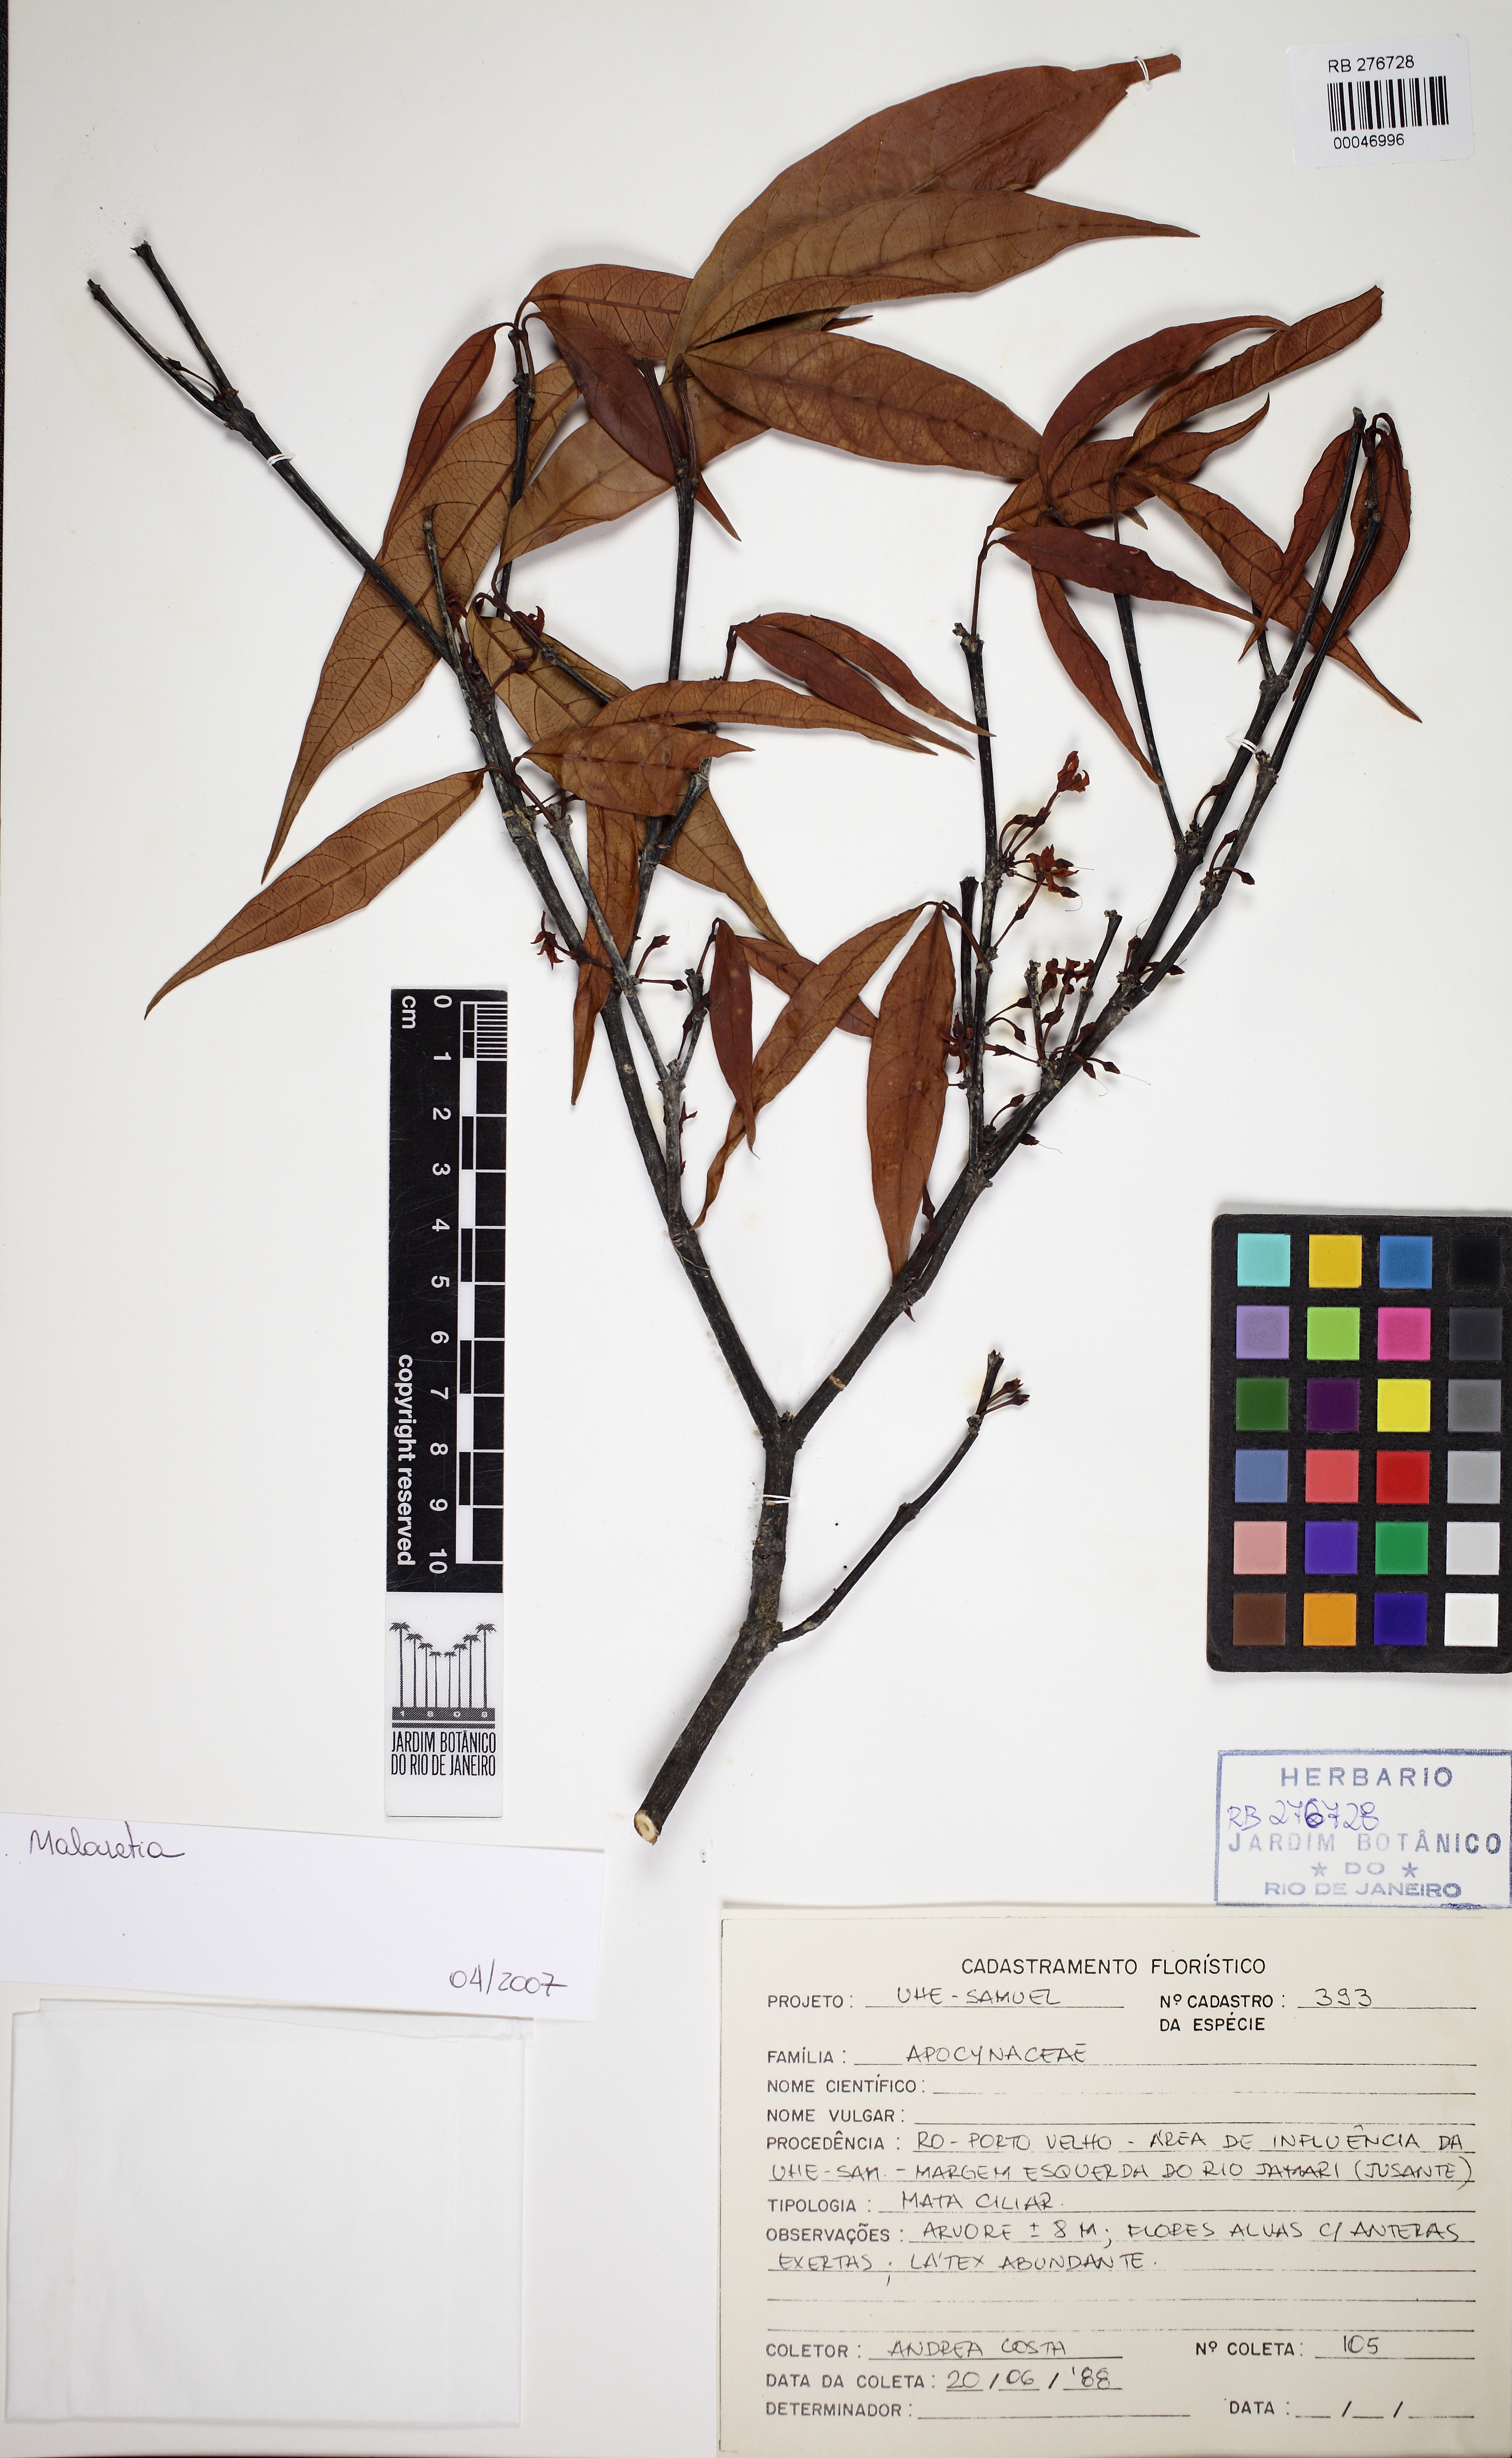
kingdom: Plantae
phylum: Tracheophyta
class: Magnoliopsida
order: Gentianales
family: Apocynaceae
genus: Malouetia
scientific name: Malouetia
